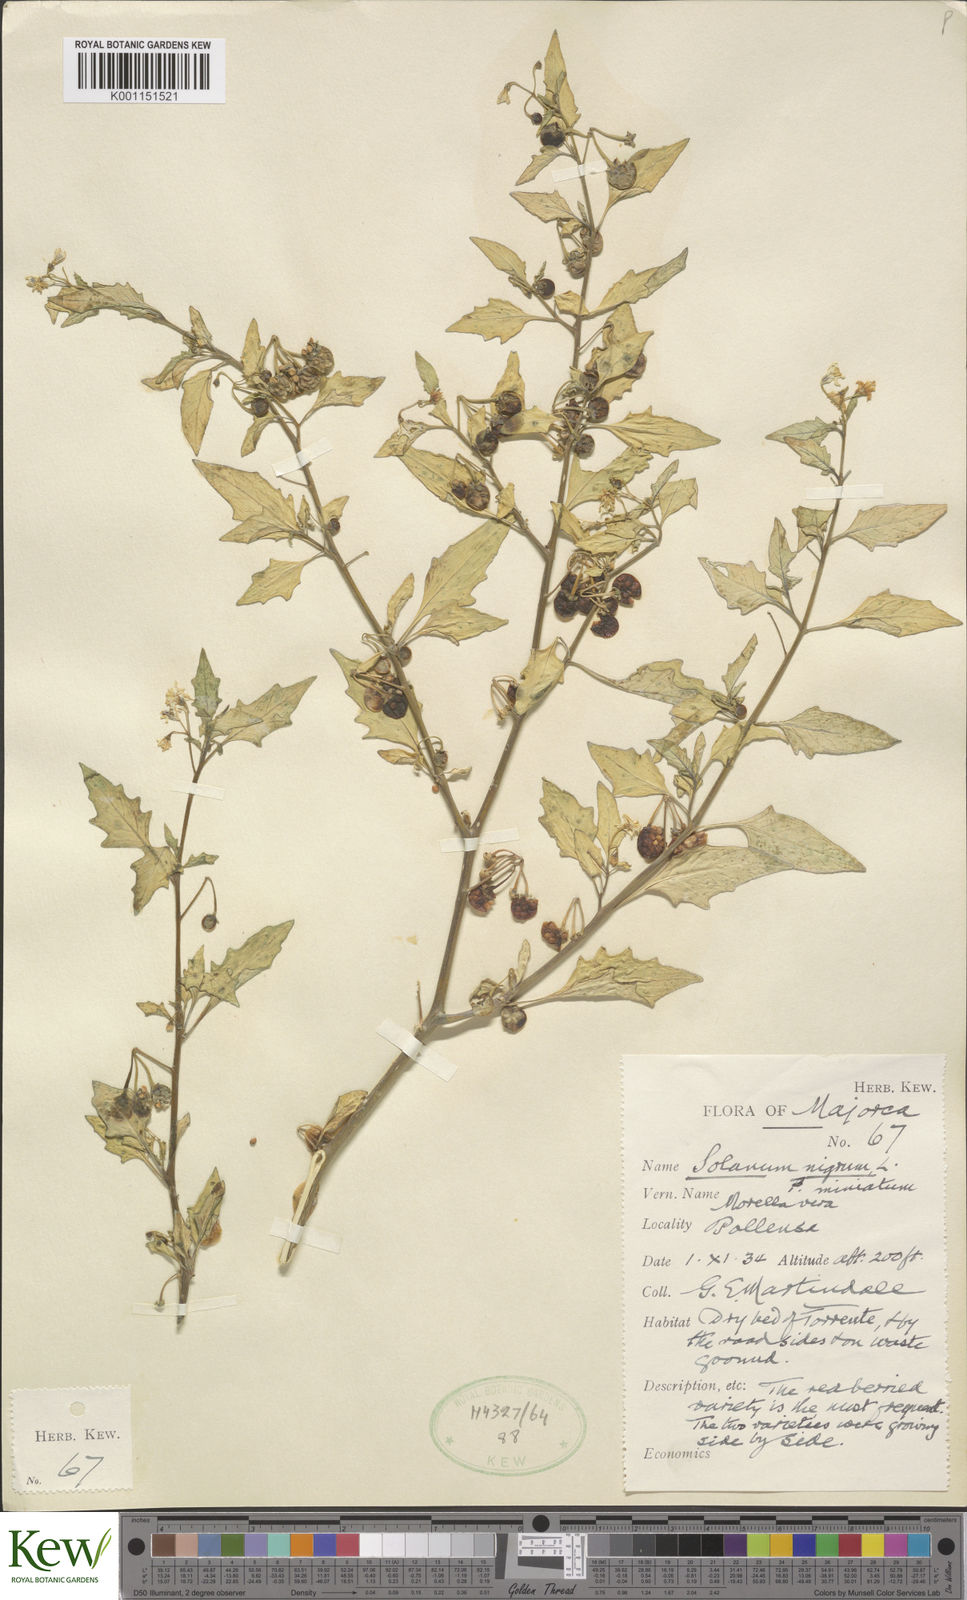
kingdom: Plantae
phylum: Tracheophyta
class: Magnoliopsida
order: Solanales
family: Solanaceae
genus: Solanum
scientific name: Solanum villosum
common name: Red nightshade
